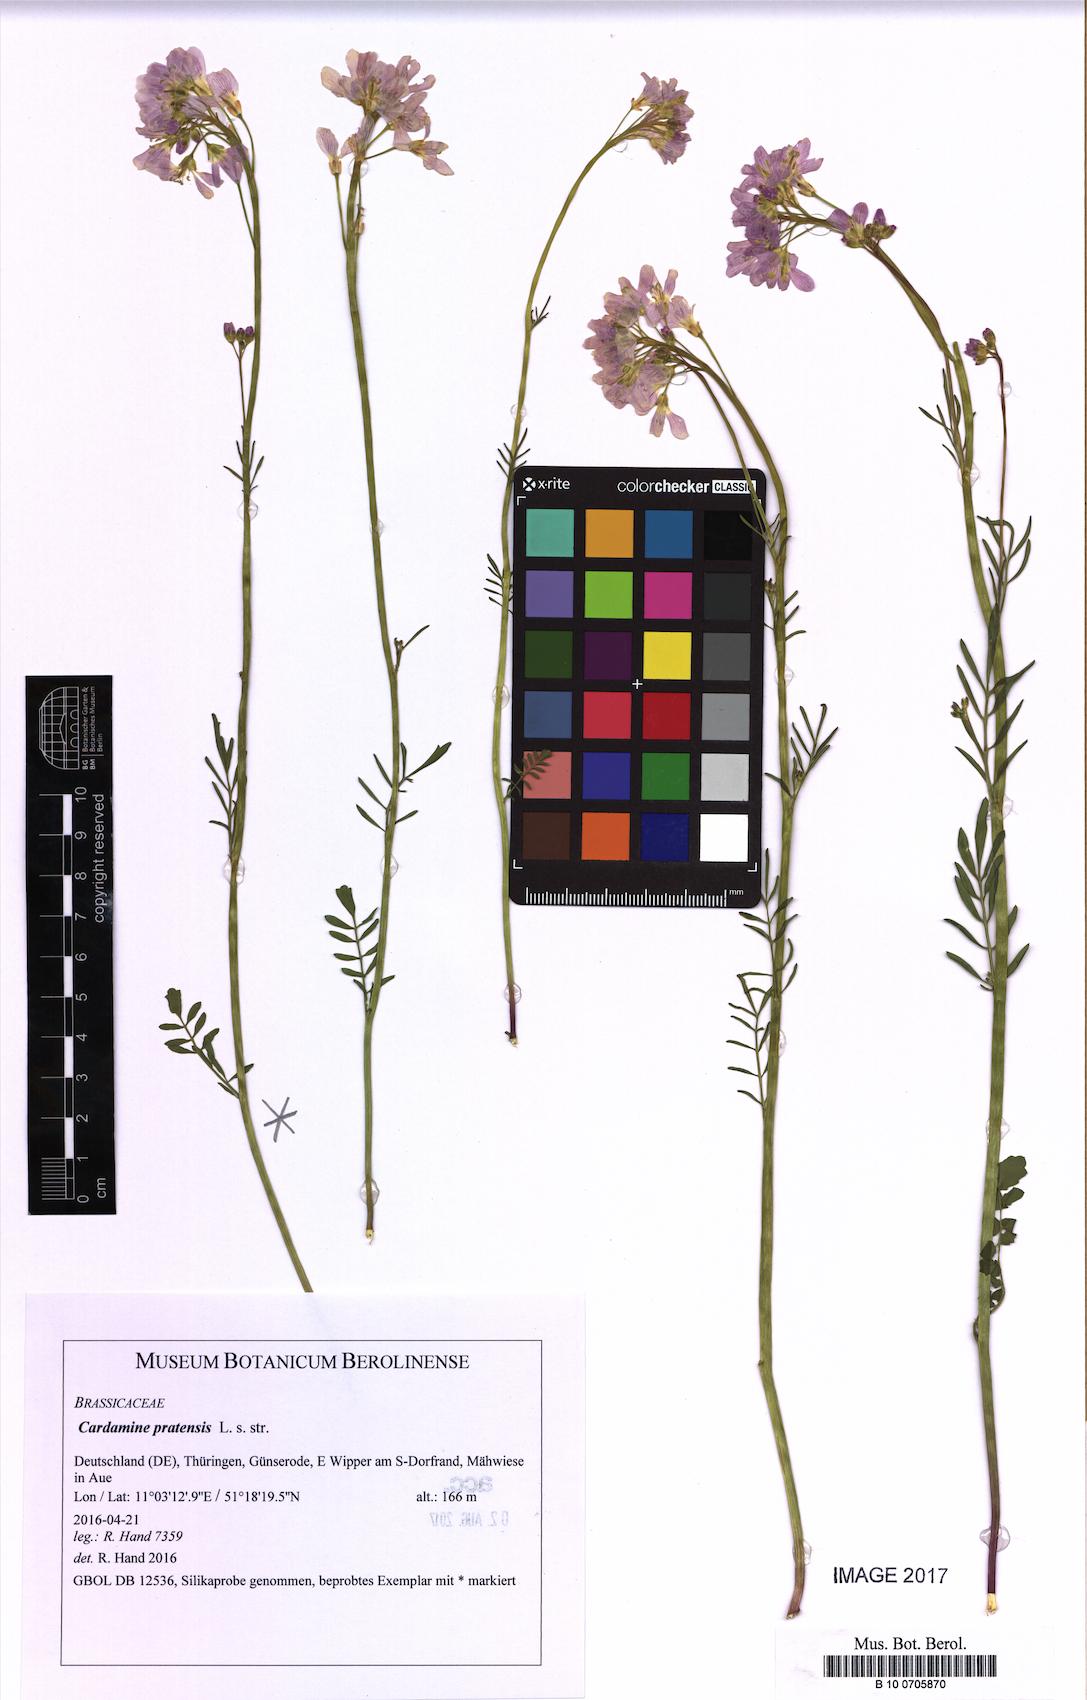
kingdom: Plantae
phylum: Tracheophyta
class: Magnoliopsida
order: Brassicales
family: Brassicaceae
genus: Cardamine
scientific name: Cardamine pratensis
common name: Cuckoo flower
